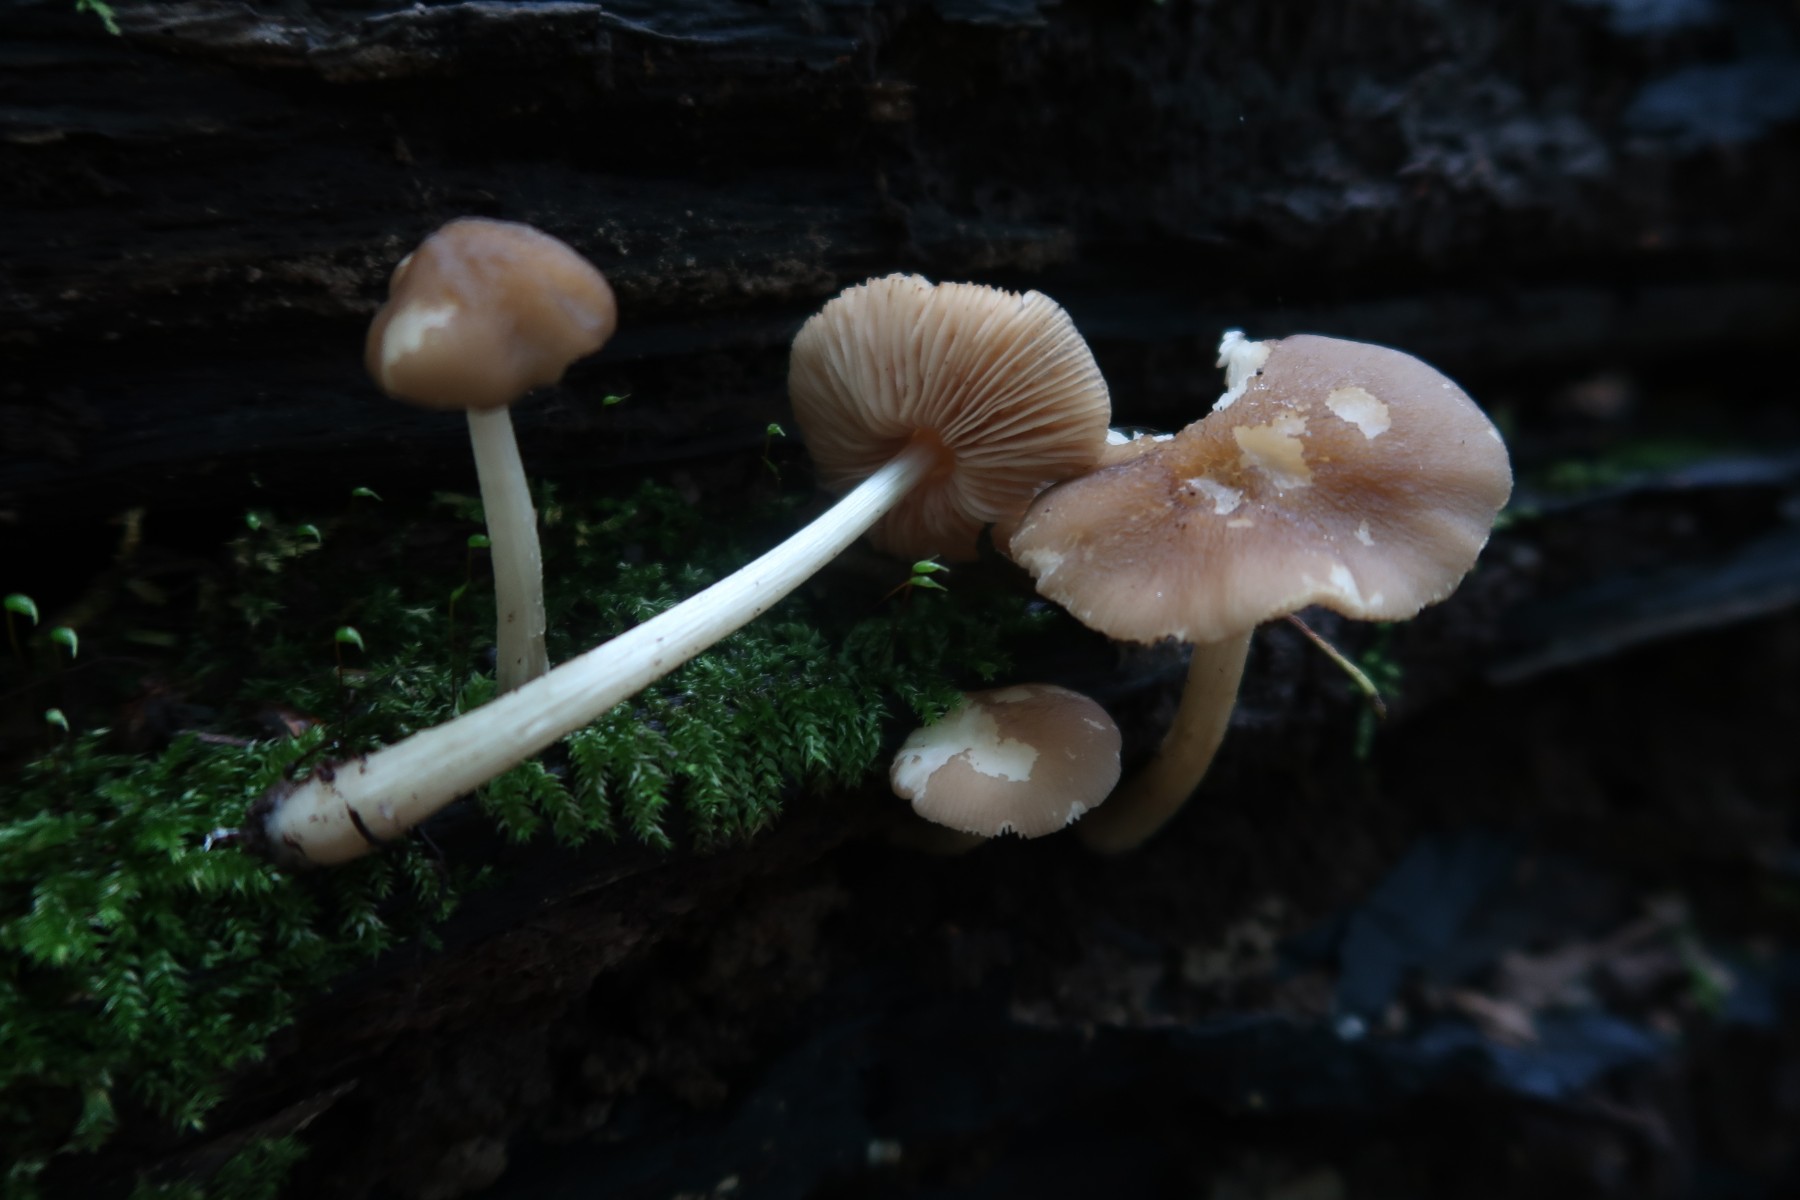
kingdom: Fungi
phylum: Basidiomycota
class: Agaricomycetes
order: Agaricales
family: Pluteaceae
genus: Pluteus
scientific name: Pluteus phlebophorus
